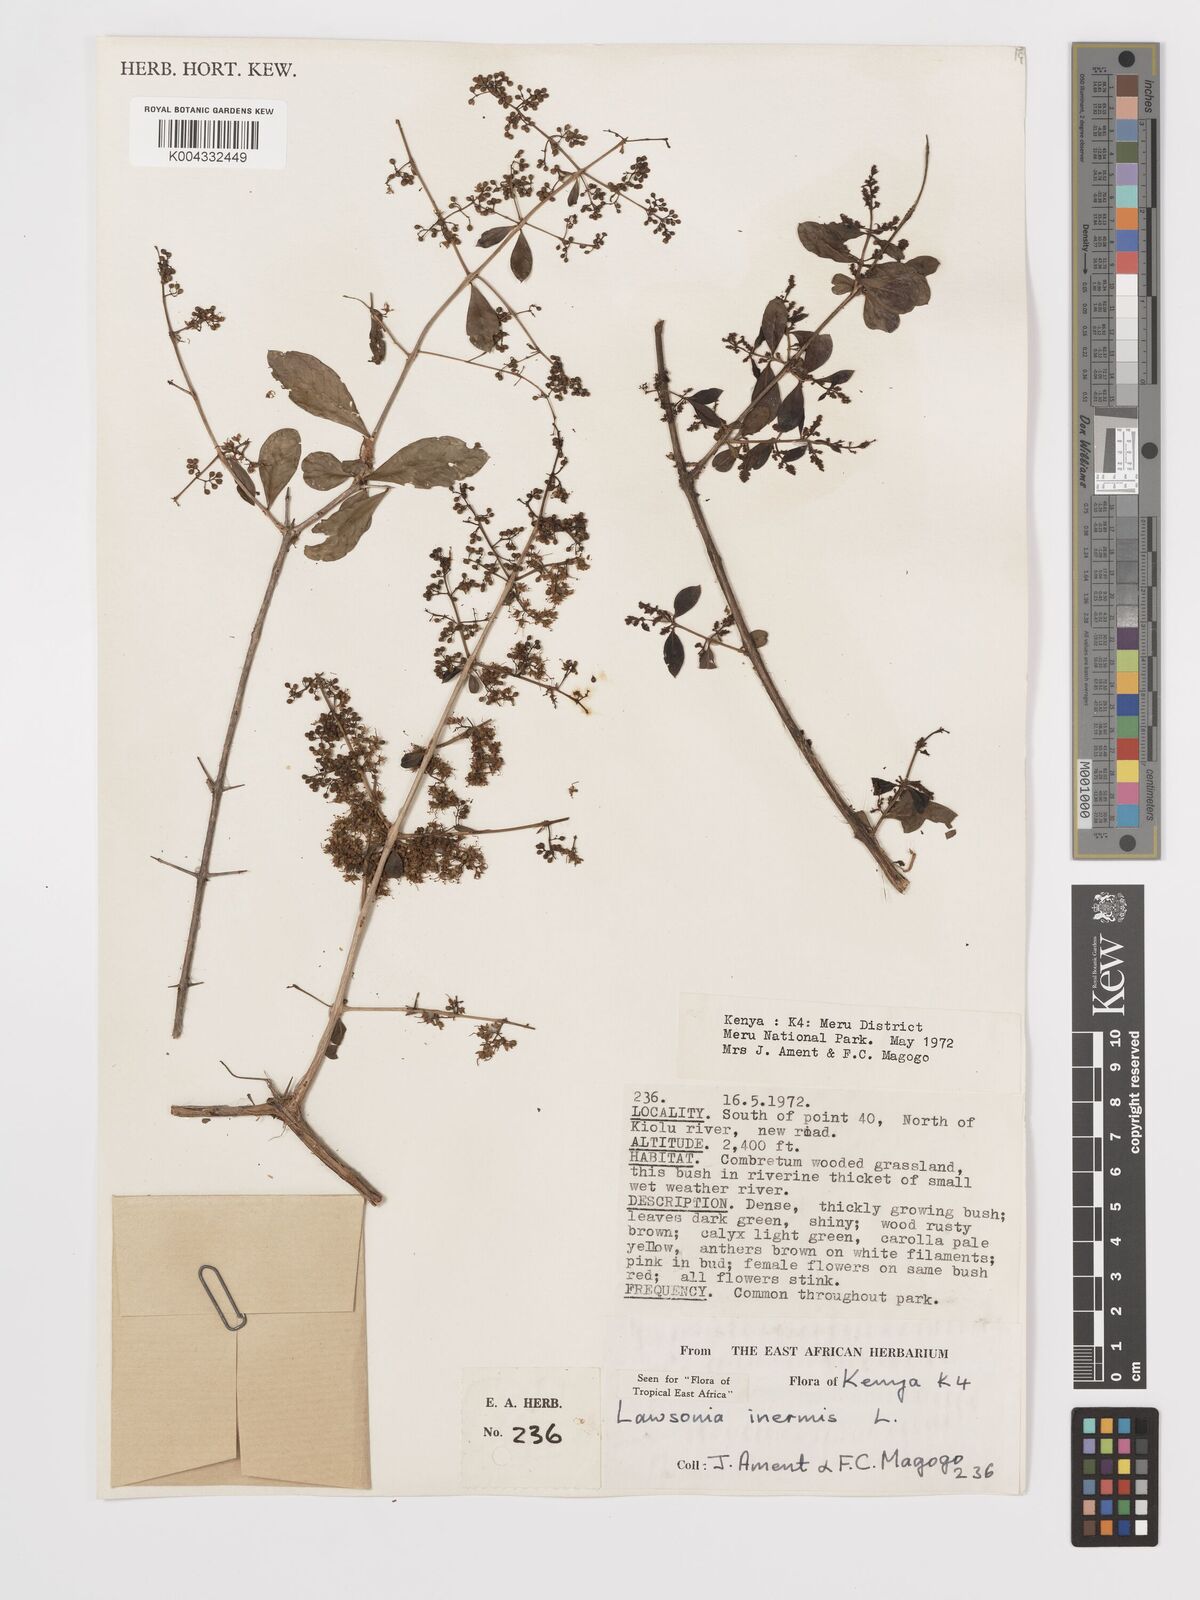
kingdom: Plantae
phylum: Tracheophyta
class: Magnoliopsida
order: Myrtales
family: Lythraceae
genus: Lawsonia
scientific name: Lawsonia inermis
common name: Henna
